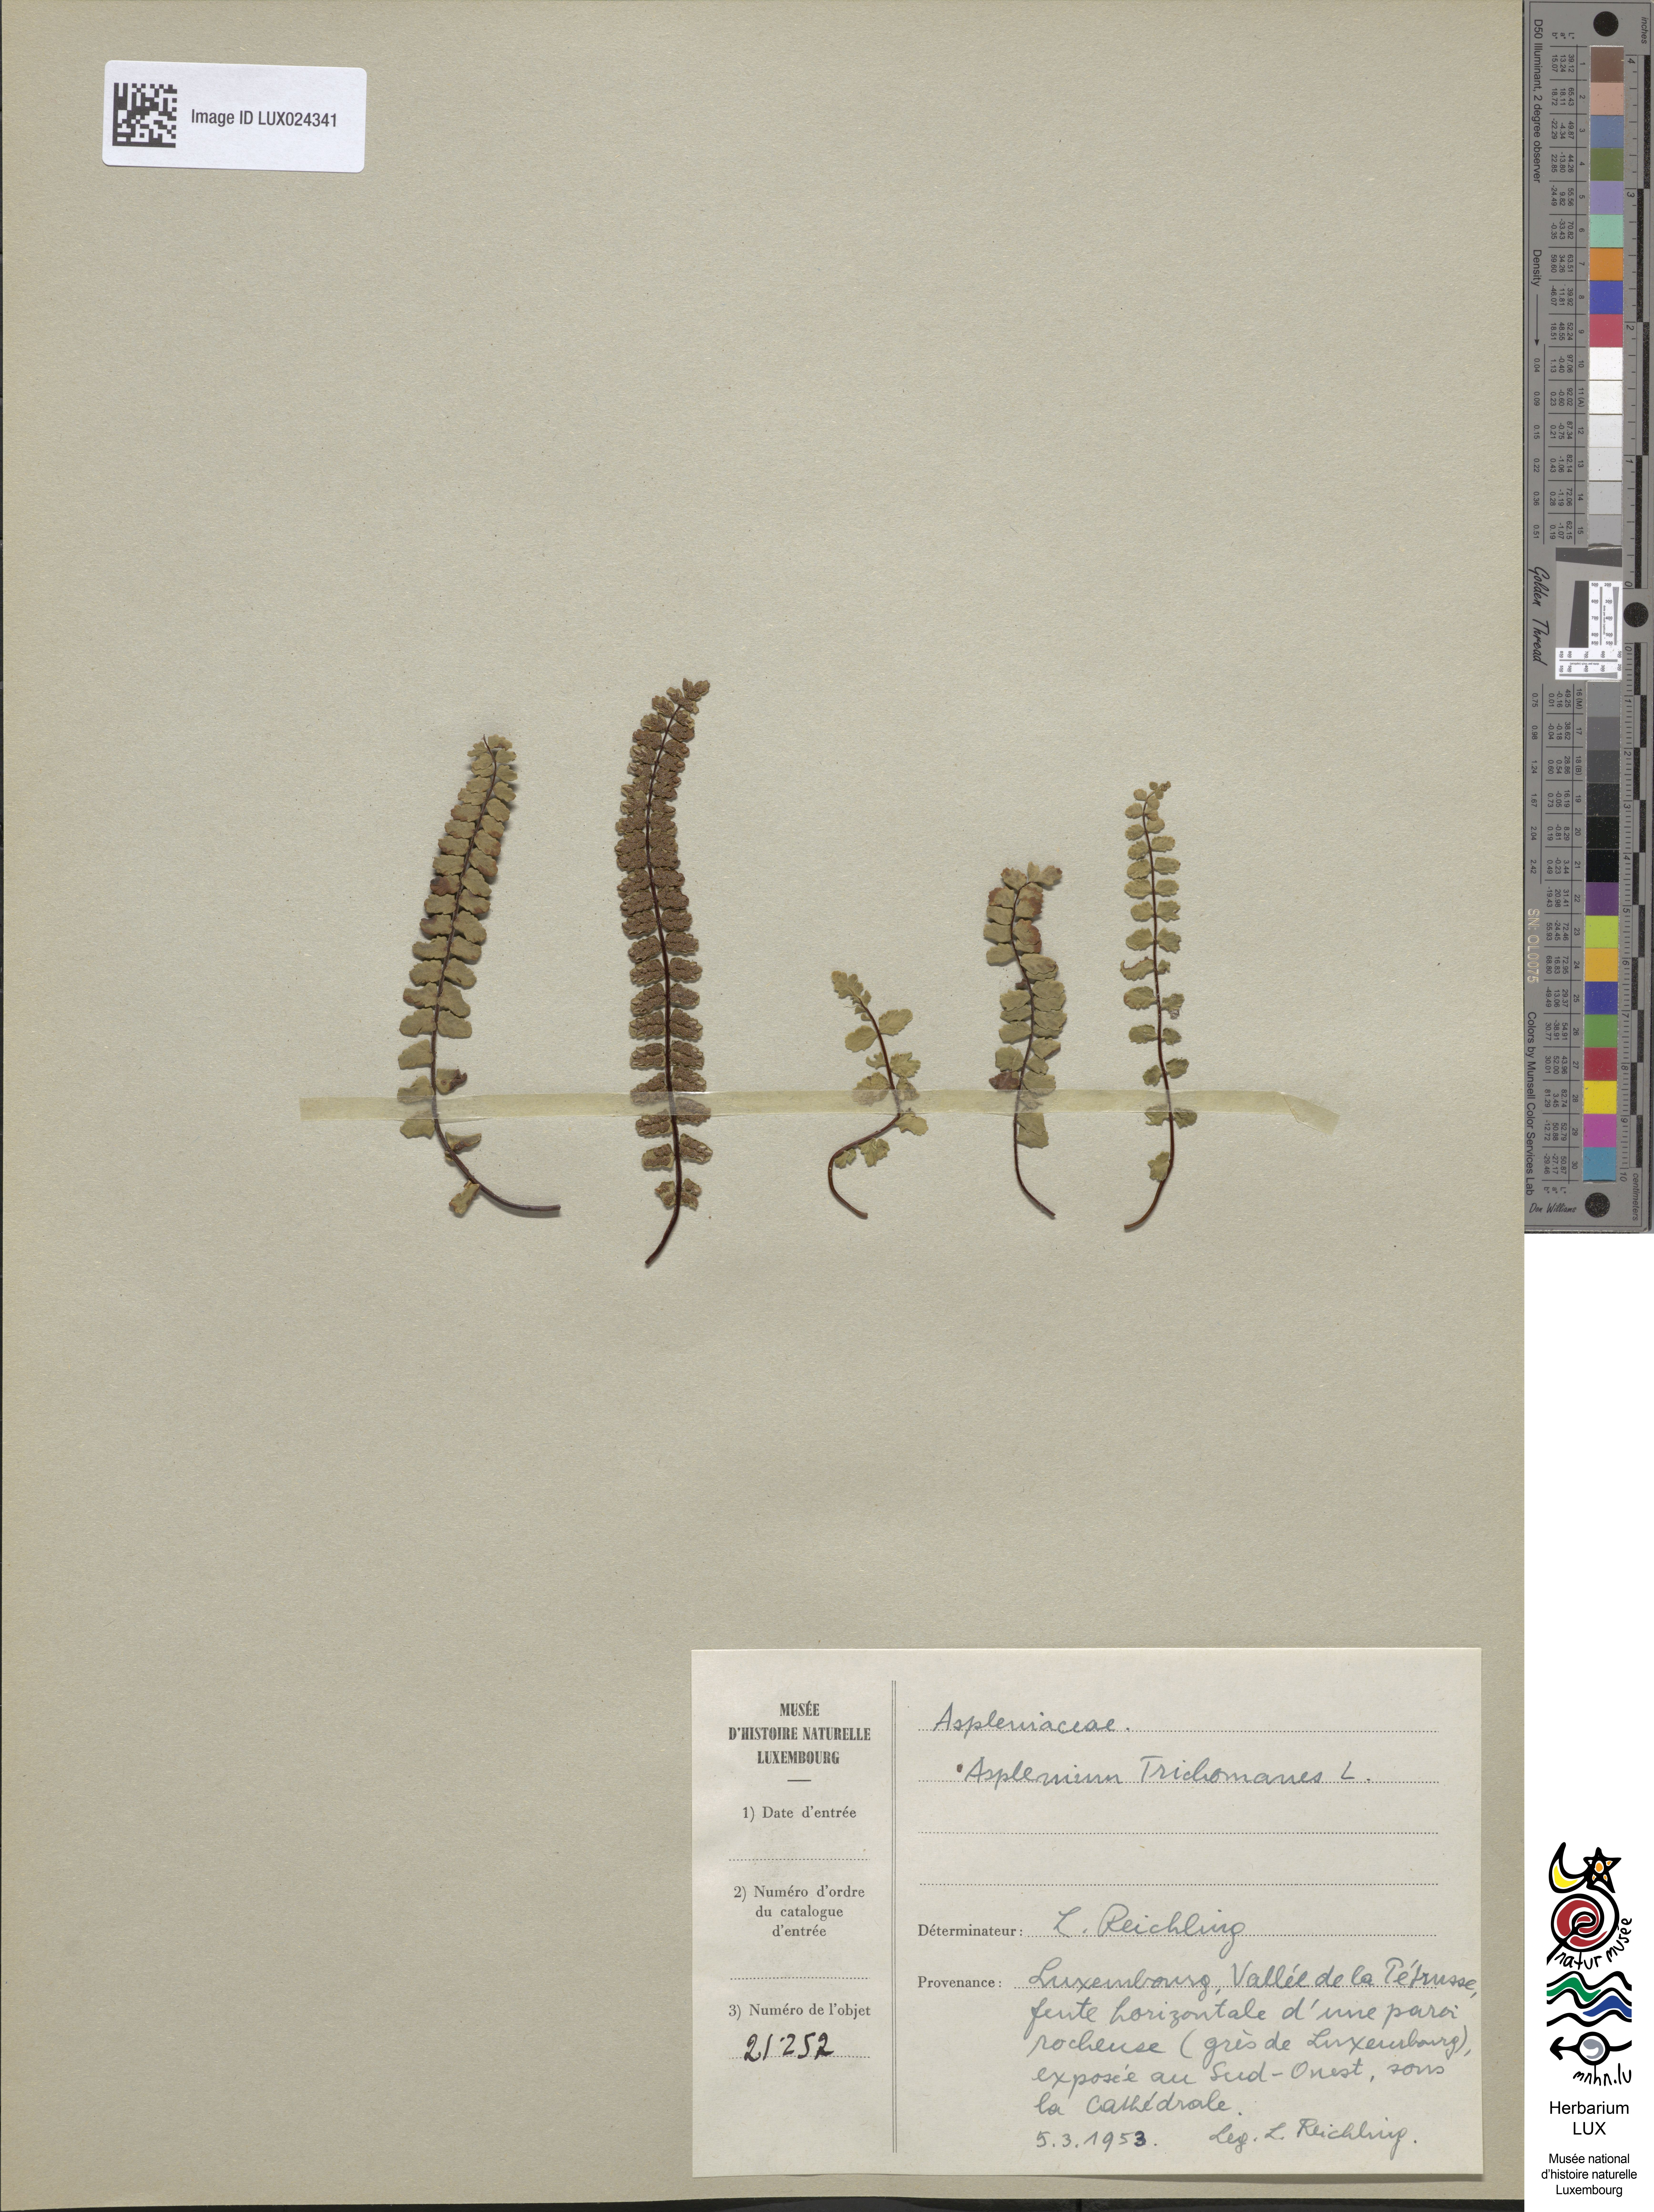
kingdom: Plantae
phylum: Tracheophyta
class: Polypodiopsida
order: Polypodiales
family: Aspleniaceae
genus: Asplenium
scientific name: Asplenium trichomanes
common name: Maidenhair spleenwort
